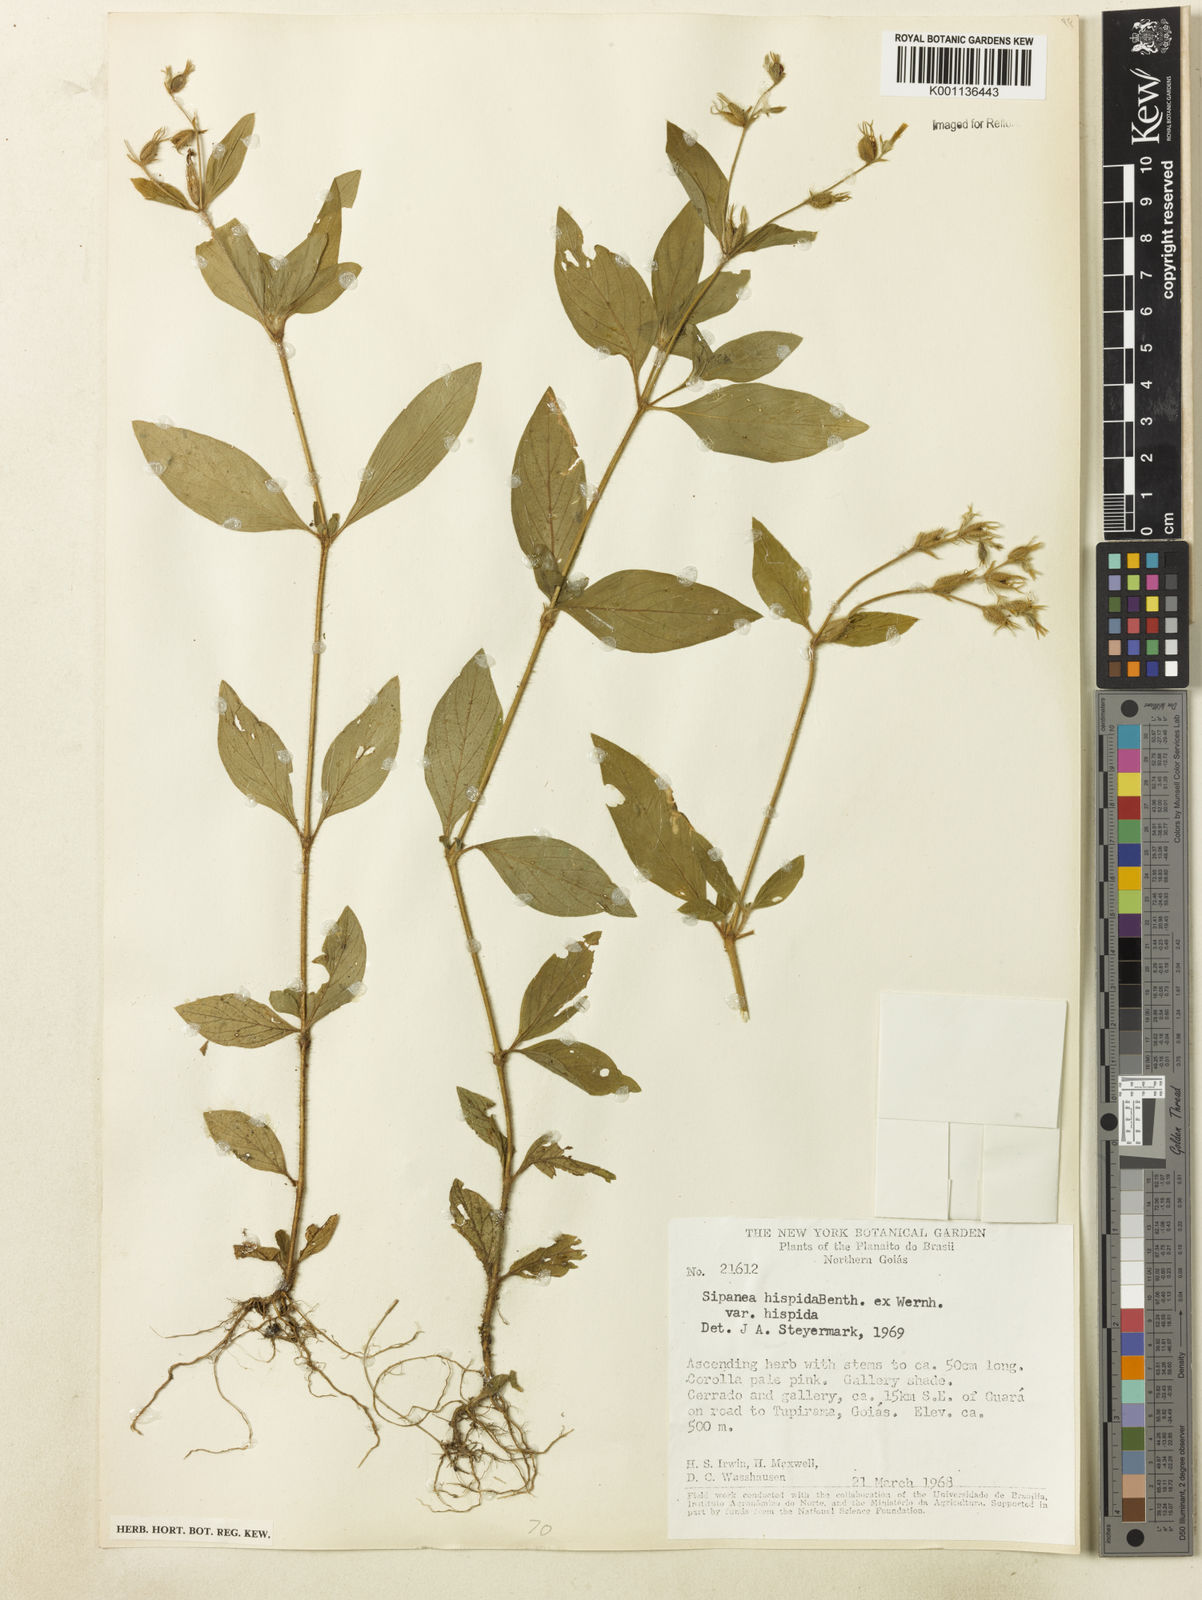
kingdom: Plantae
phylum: Tracheophyta
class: Magnoliopsida
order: Gentianales
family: Rubiaceae
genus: Sipanea
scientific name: Sipanea hispida
